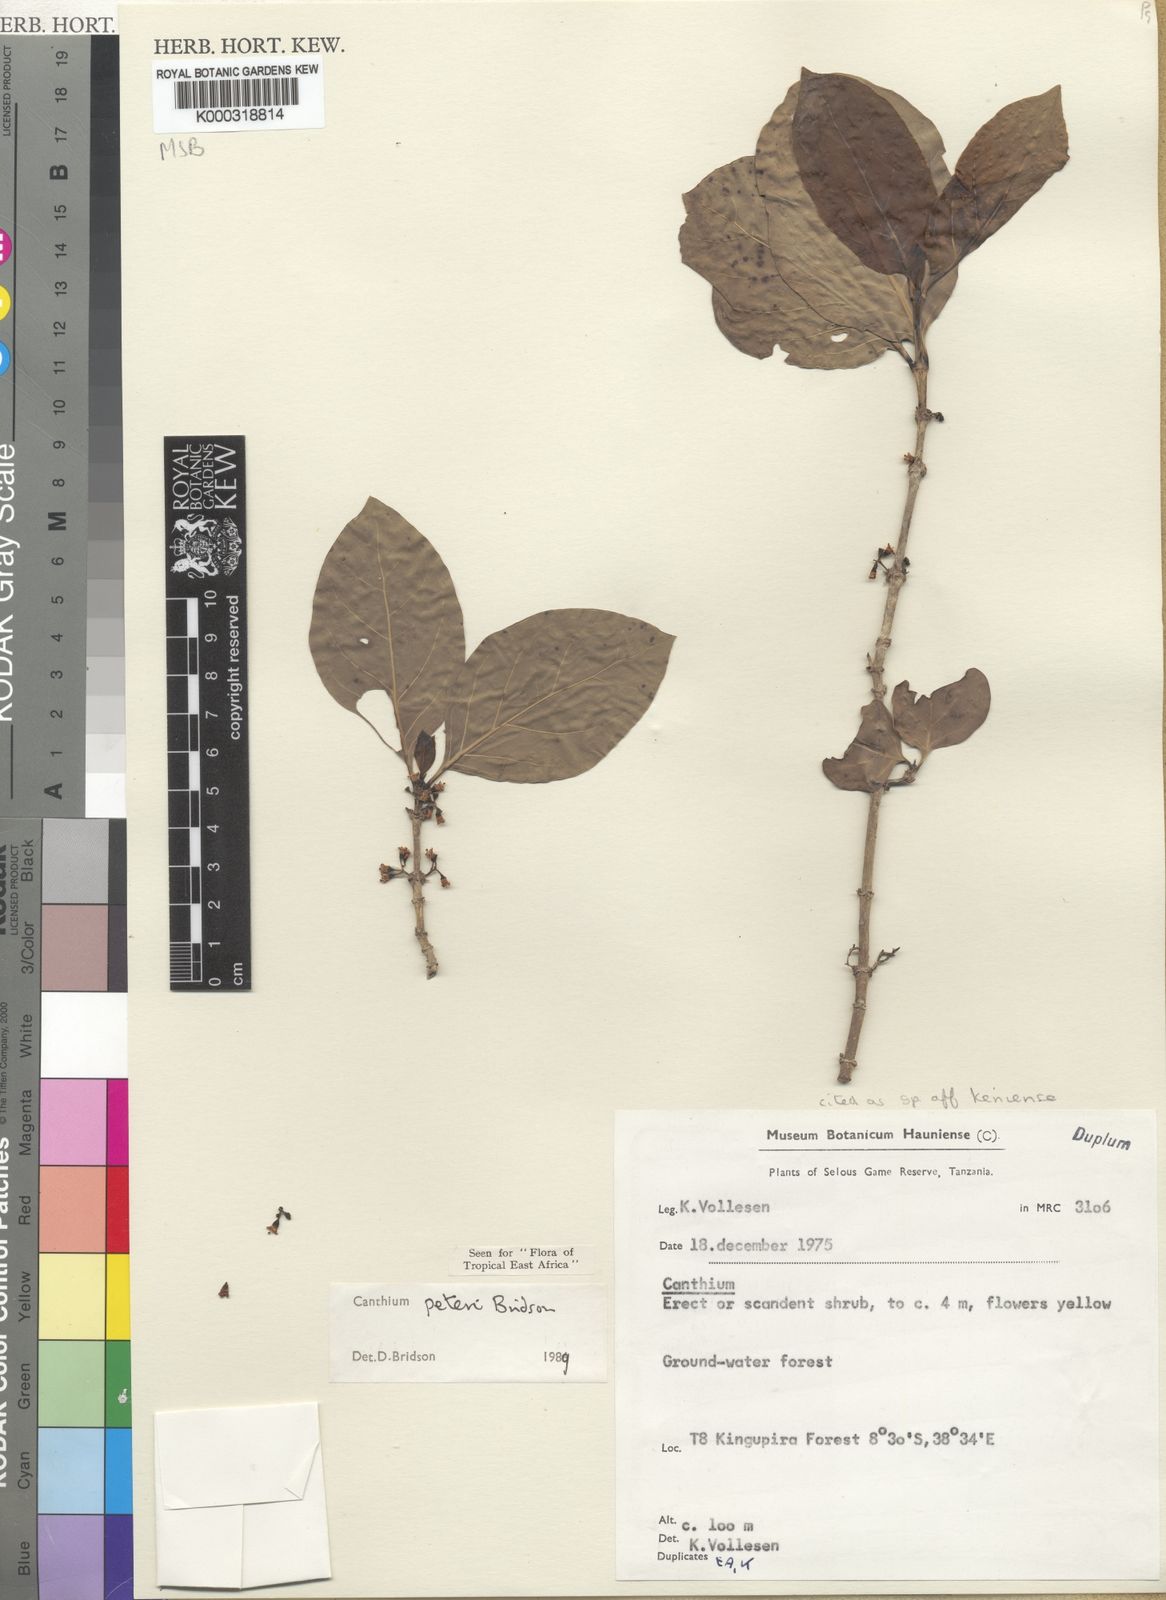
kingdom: Plantae
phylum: Tracheophyta
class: Magnoliopsida
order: Gentianales
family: Rubiaceae
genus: Afrocanthium
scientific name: Afrocanthium peteri
